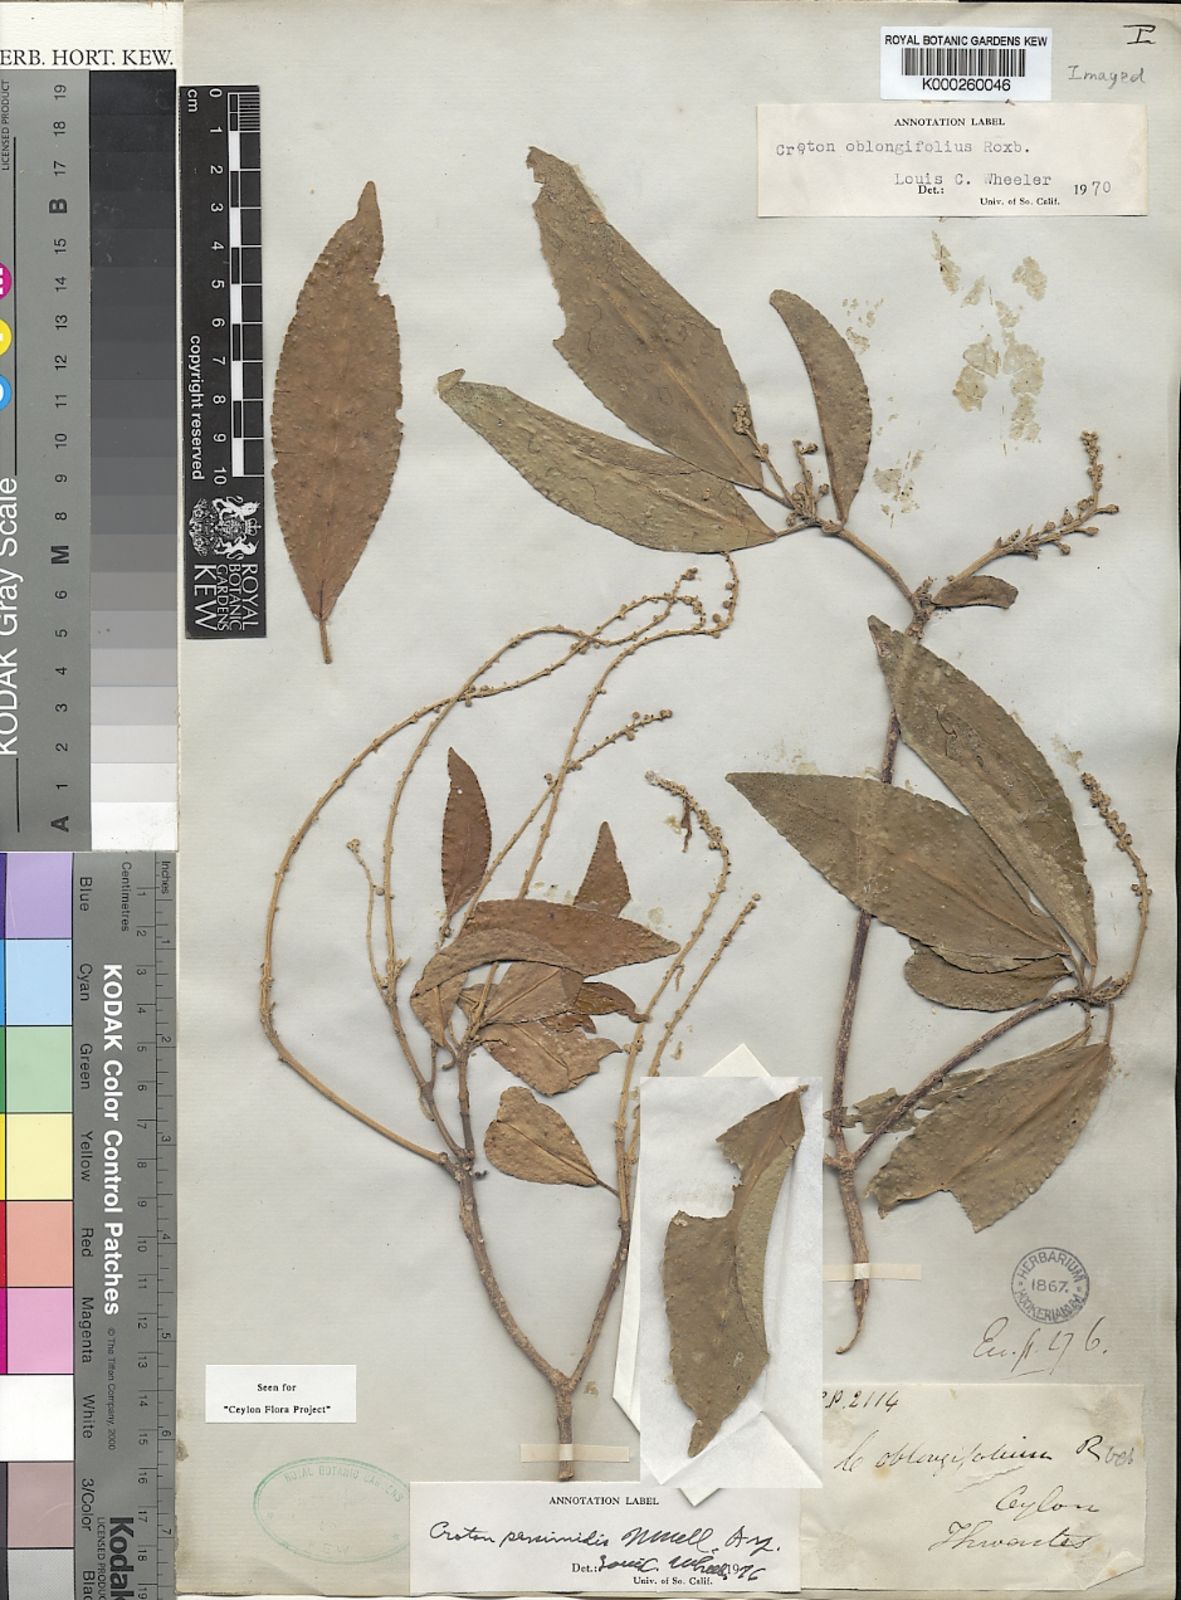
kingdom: Plantae
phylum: Tracheophyta
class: Magnoliopsida
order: Malpighiales
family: Euphorbiaceae
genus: Croton
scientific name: Croton persimilis
